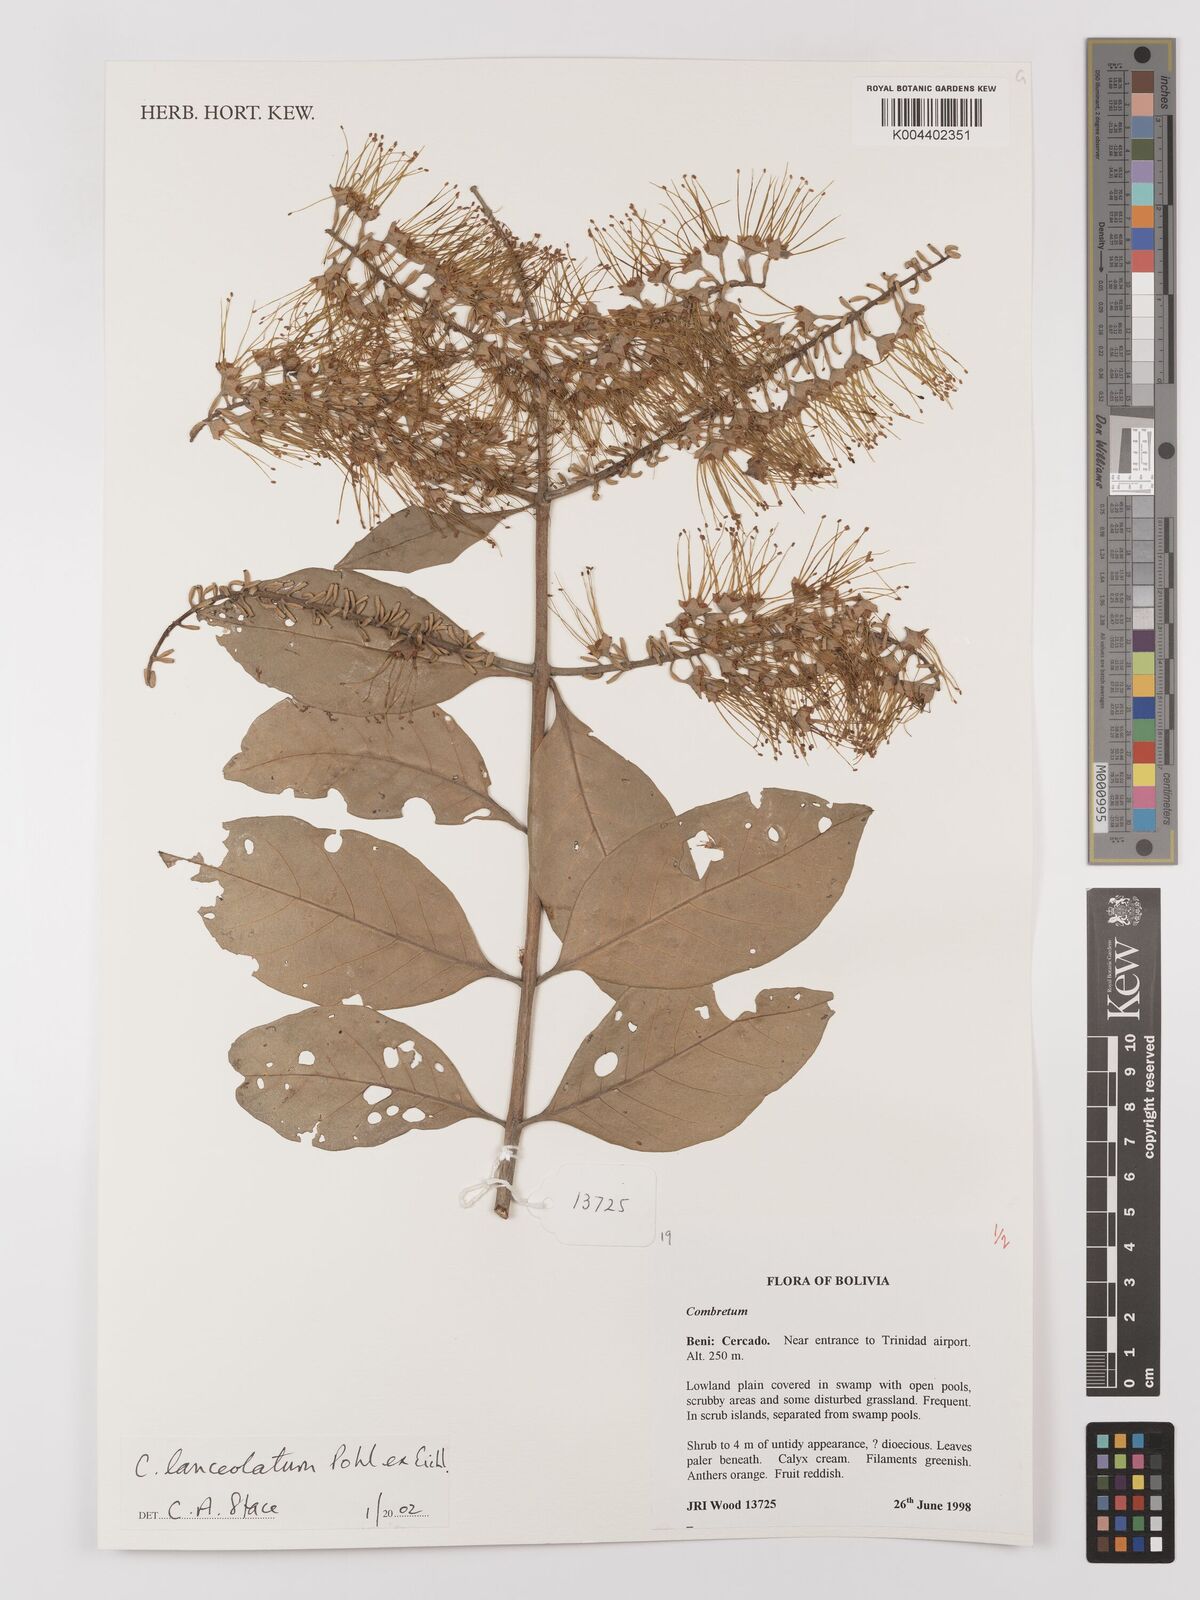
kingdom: Plantae
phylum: Tracheophyta
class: Magnoliopsida
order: Myrtales
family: Combretaceae
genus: Combretum
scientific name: Combretum lanceolatum
